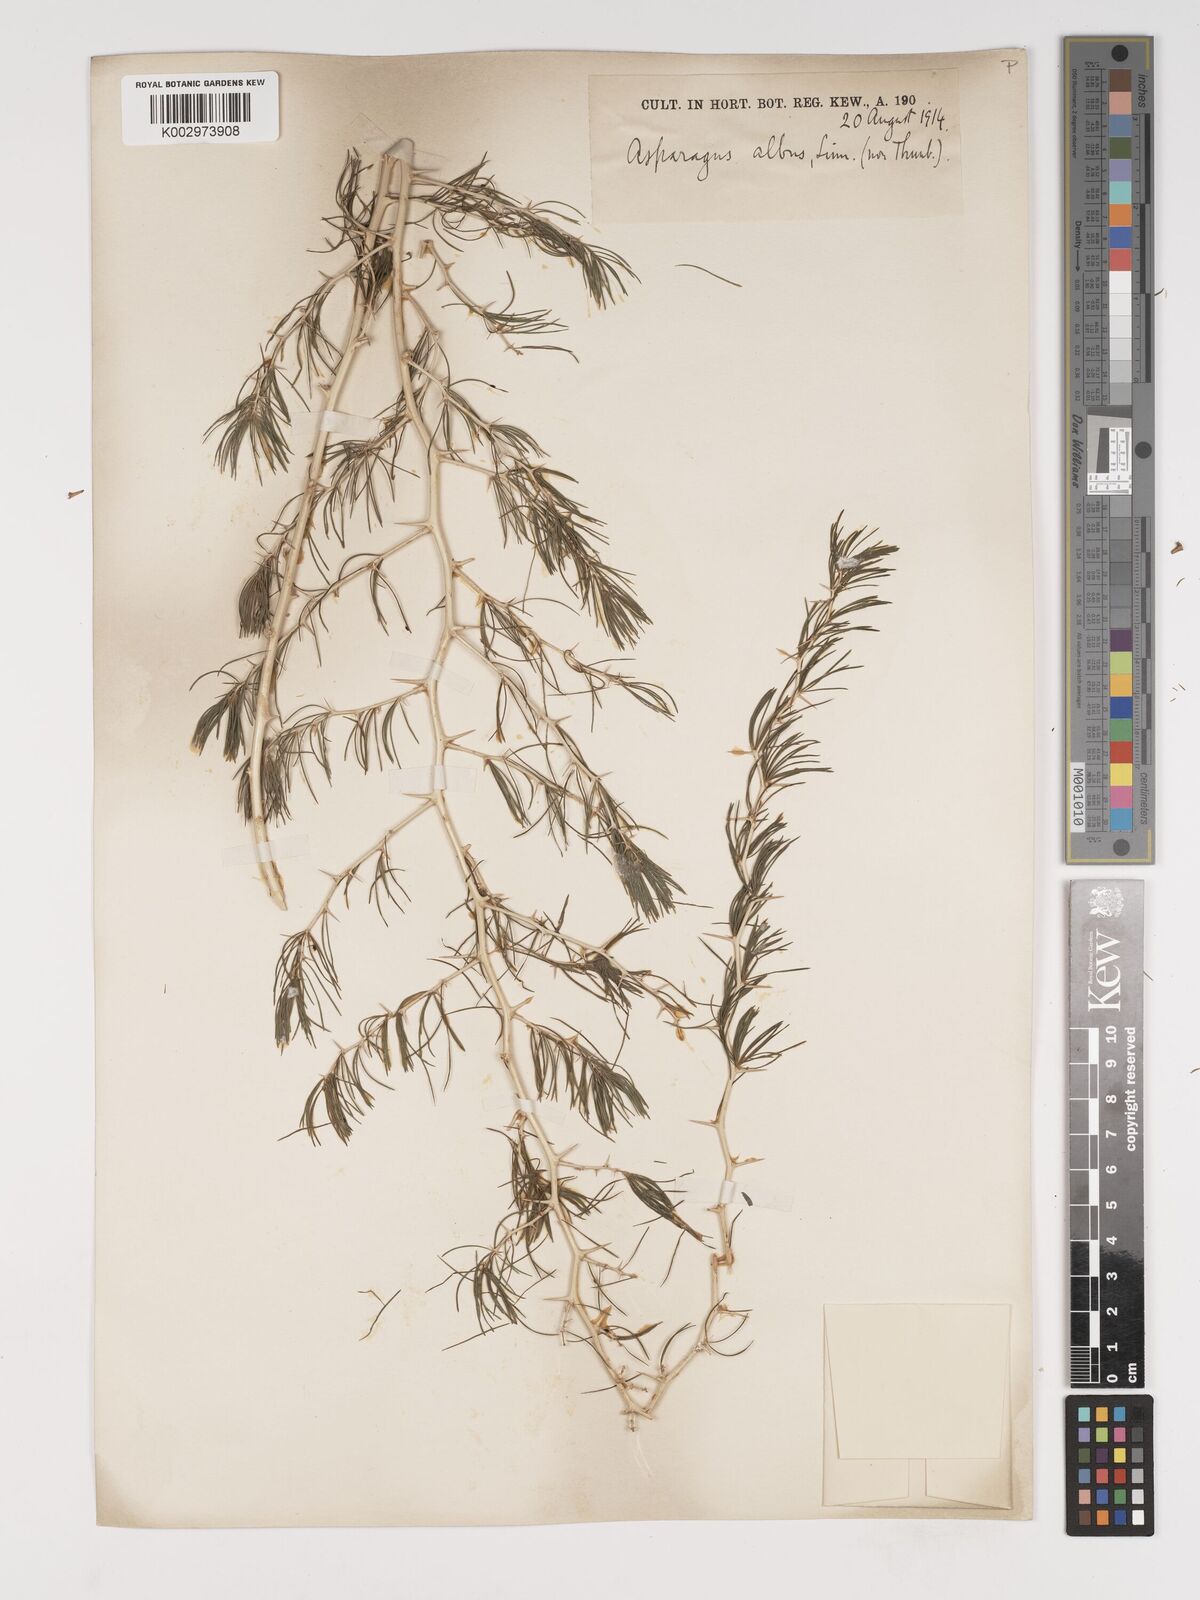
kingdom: Plantae
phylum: Tracheophyta
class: Liliopsida
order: Asparagales
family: Asparagaceae
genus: Asparagus
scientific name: Asparagus albus
